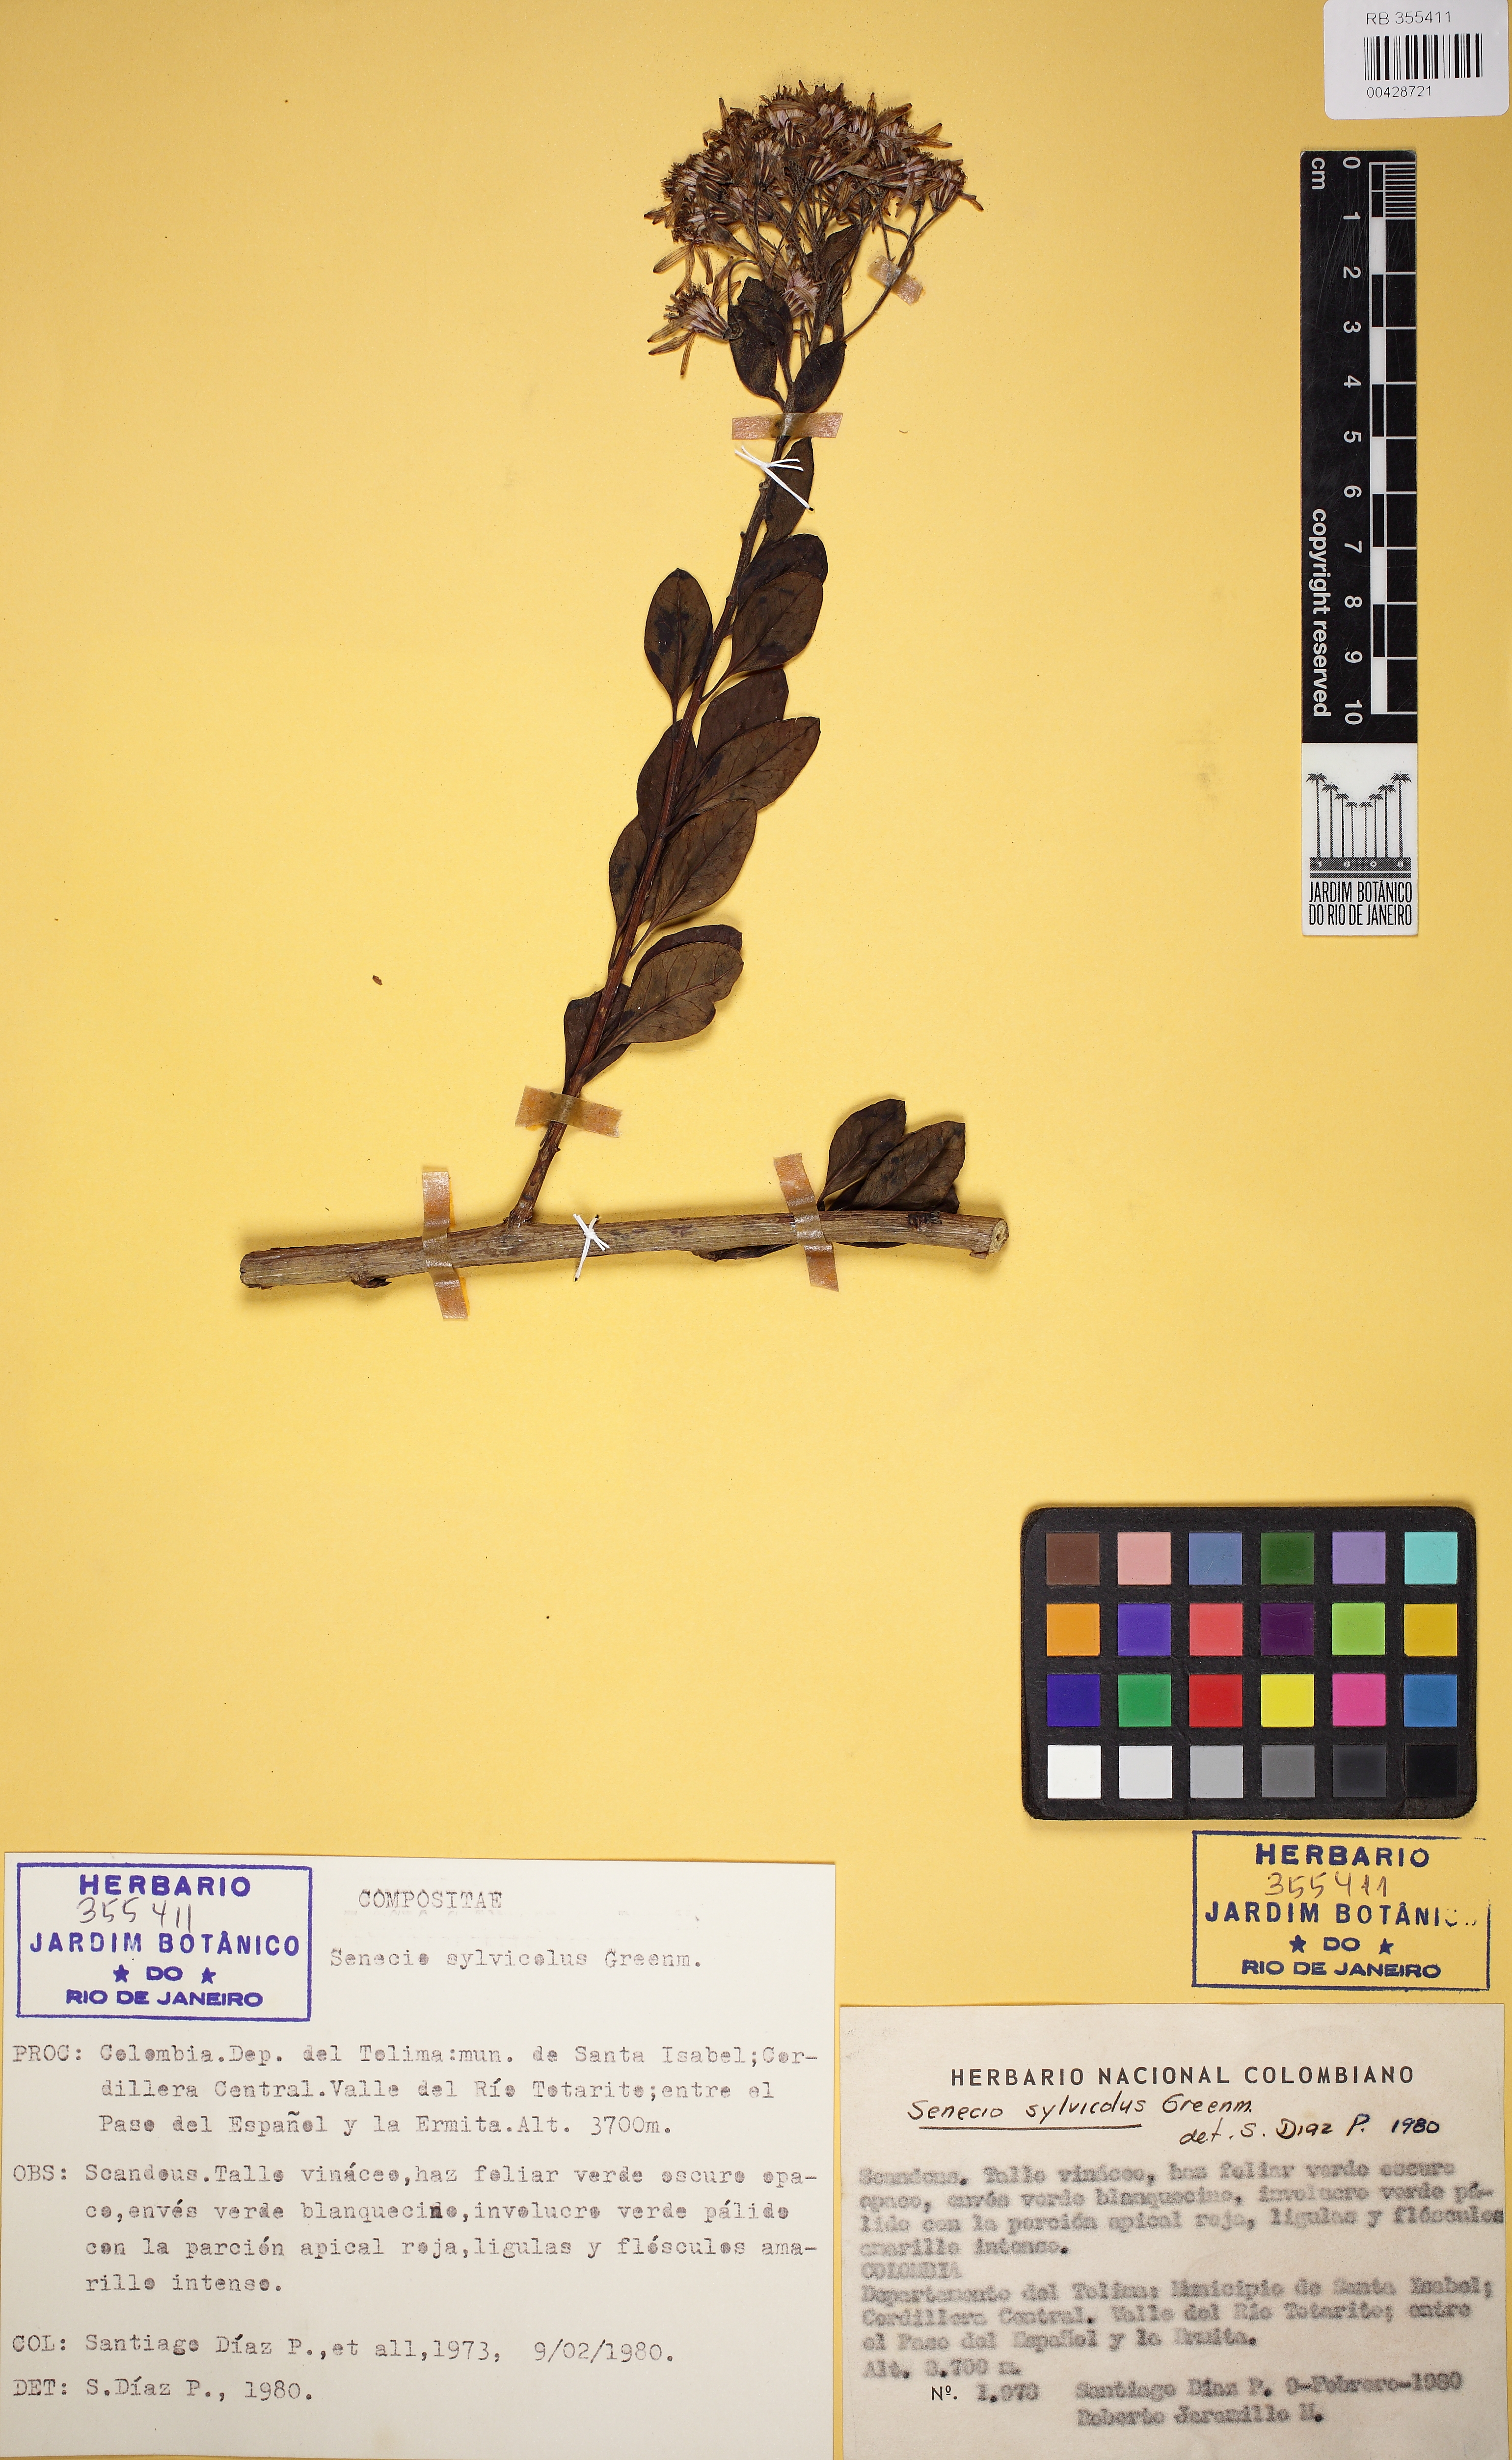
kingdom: Plantae
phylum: Tracheophyta
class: Magnoliopsida
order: Asterales
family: Asteraceae
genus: Pentacalia
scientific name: Pentacalia sylvicola
